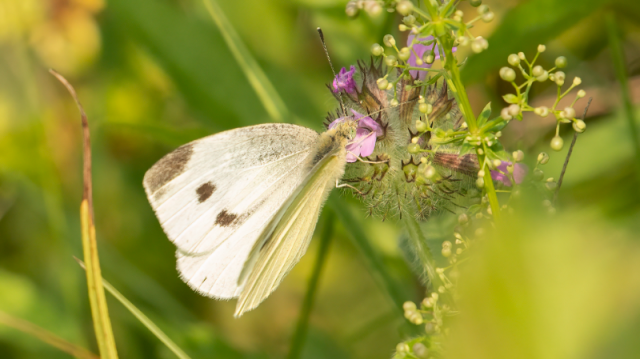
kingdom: Animalia
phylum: Arthropoda
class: Insecta
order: Lepidoptera
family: Pieridae
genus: Pieris
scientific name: Pieris rapae
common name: Cabbage White
